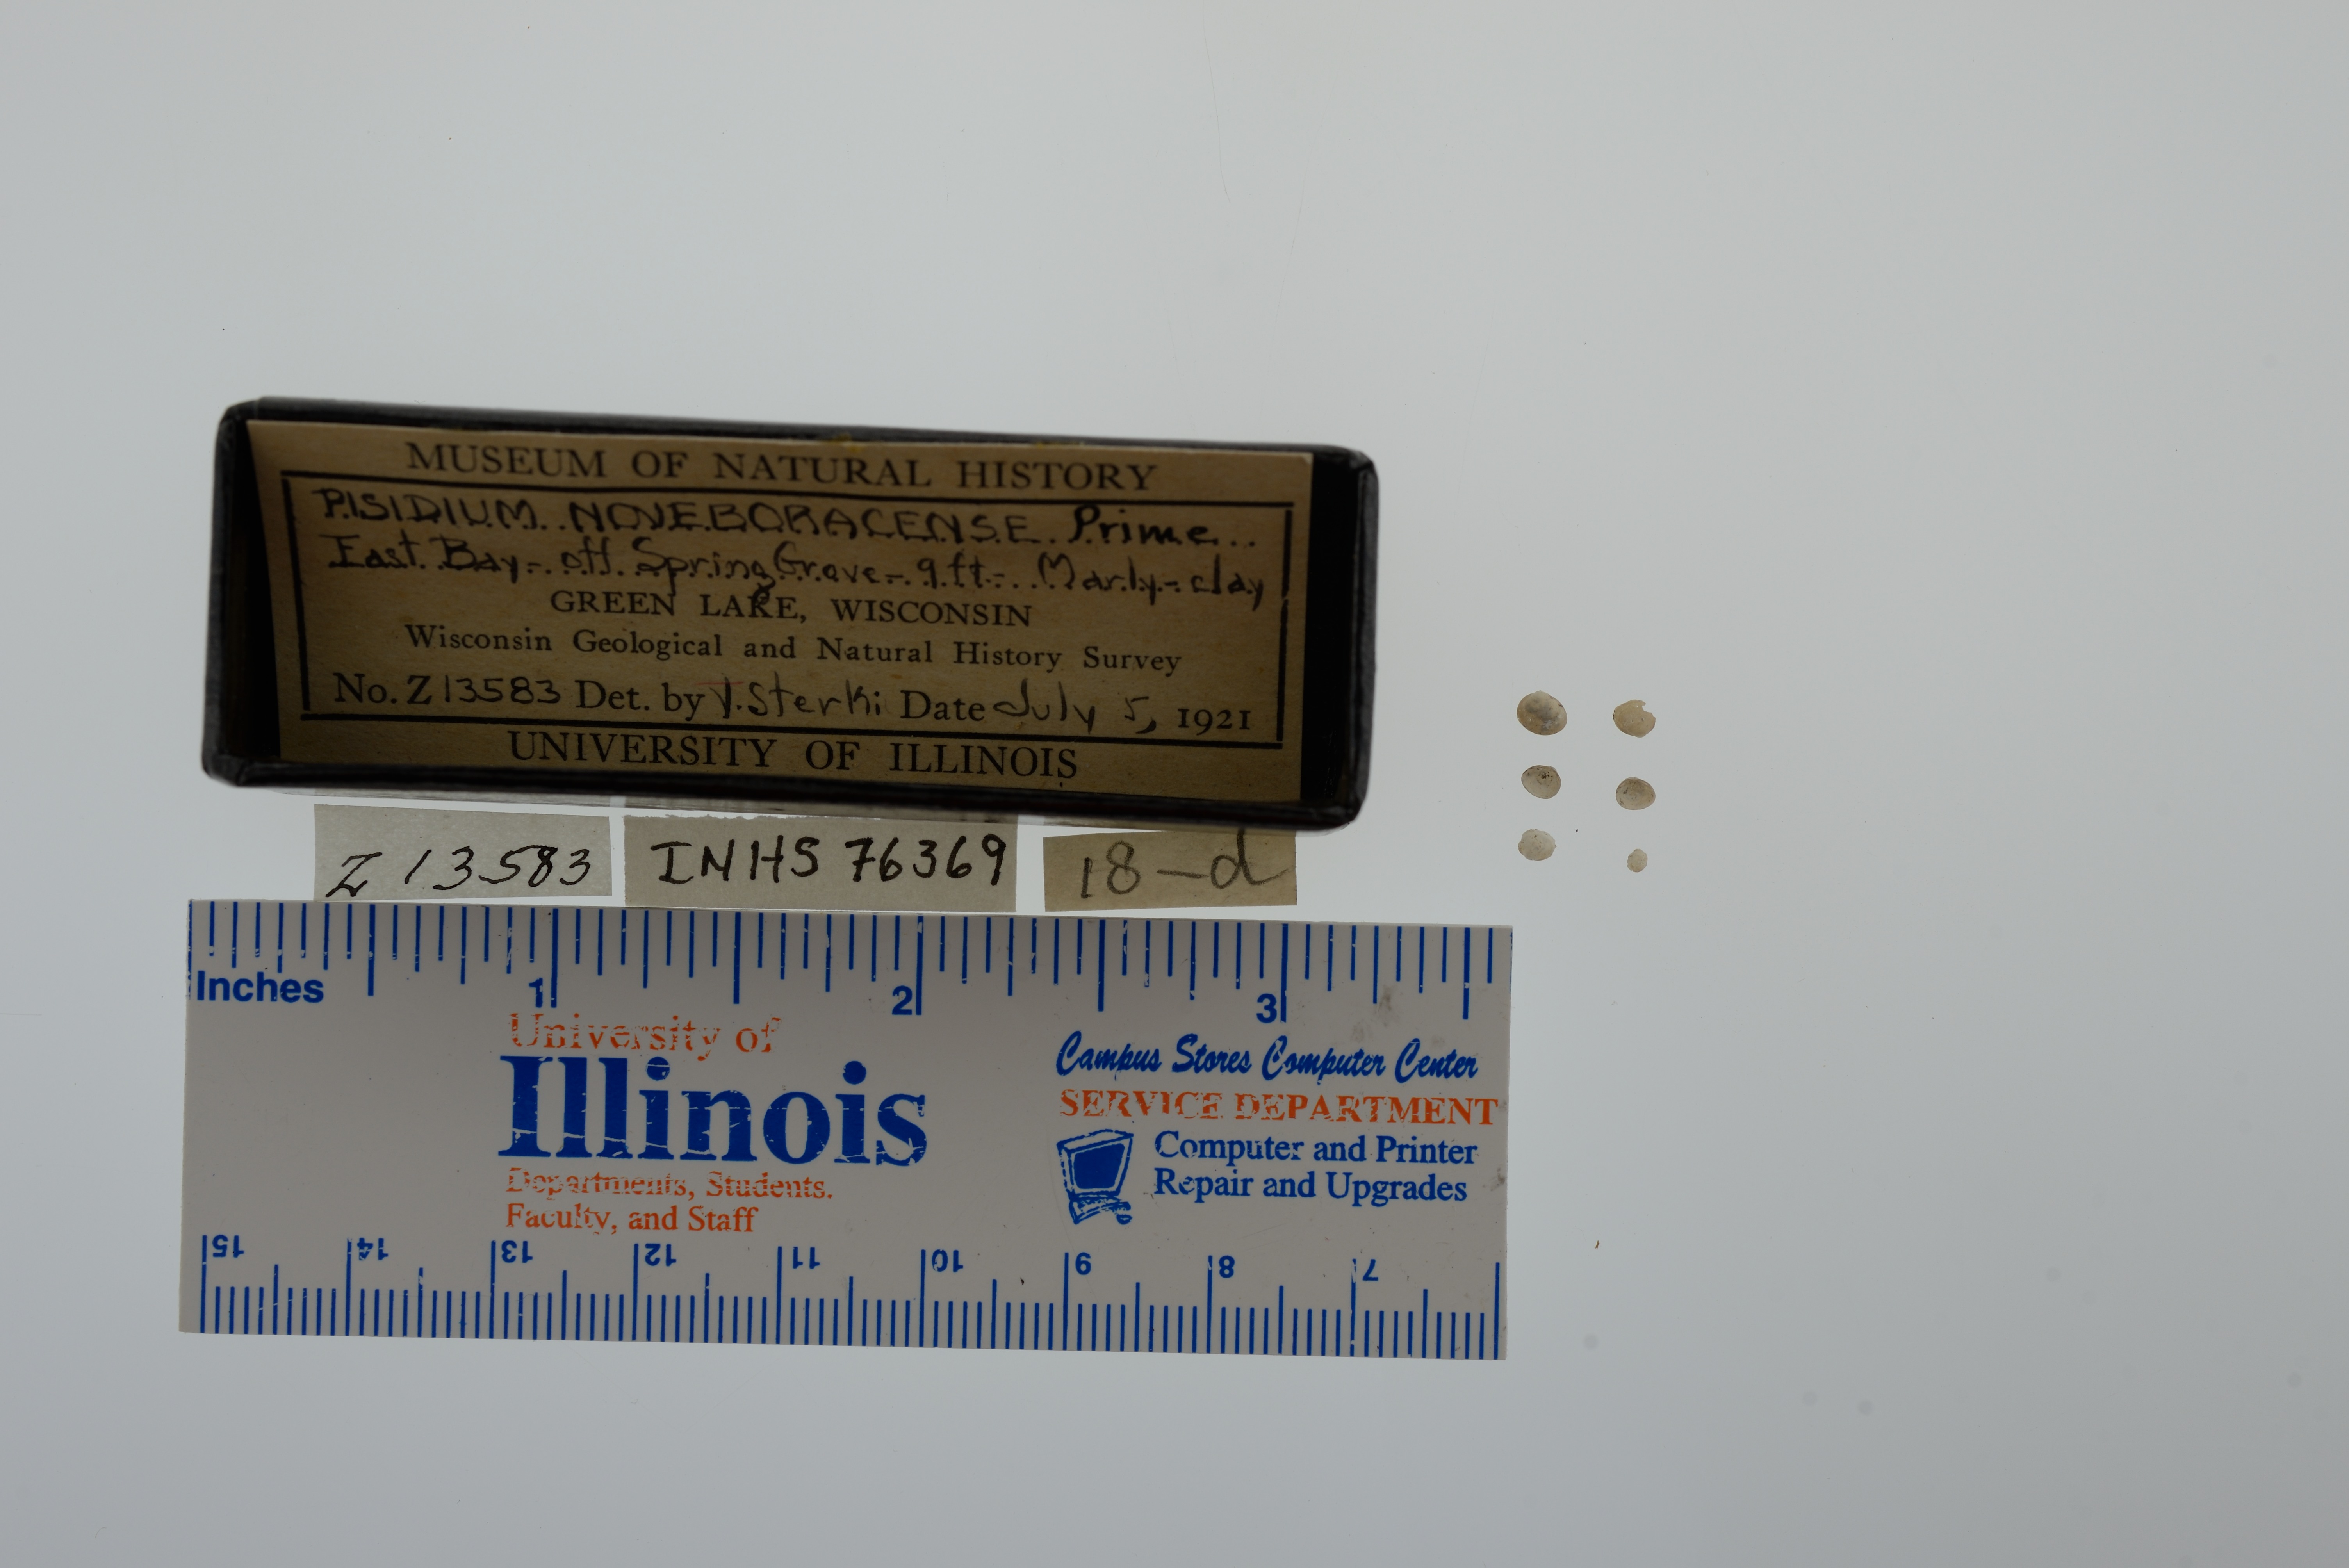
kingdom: Animalia
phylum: Mollusca
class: Bivalvia
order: Sphaeriida
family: Sphaeriidae
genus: Euglesa
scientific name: Euglesa casertana
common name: Caserta pea mussel
